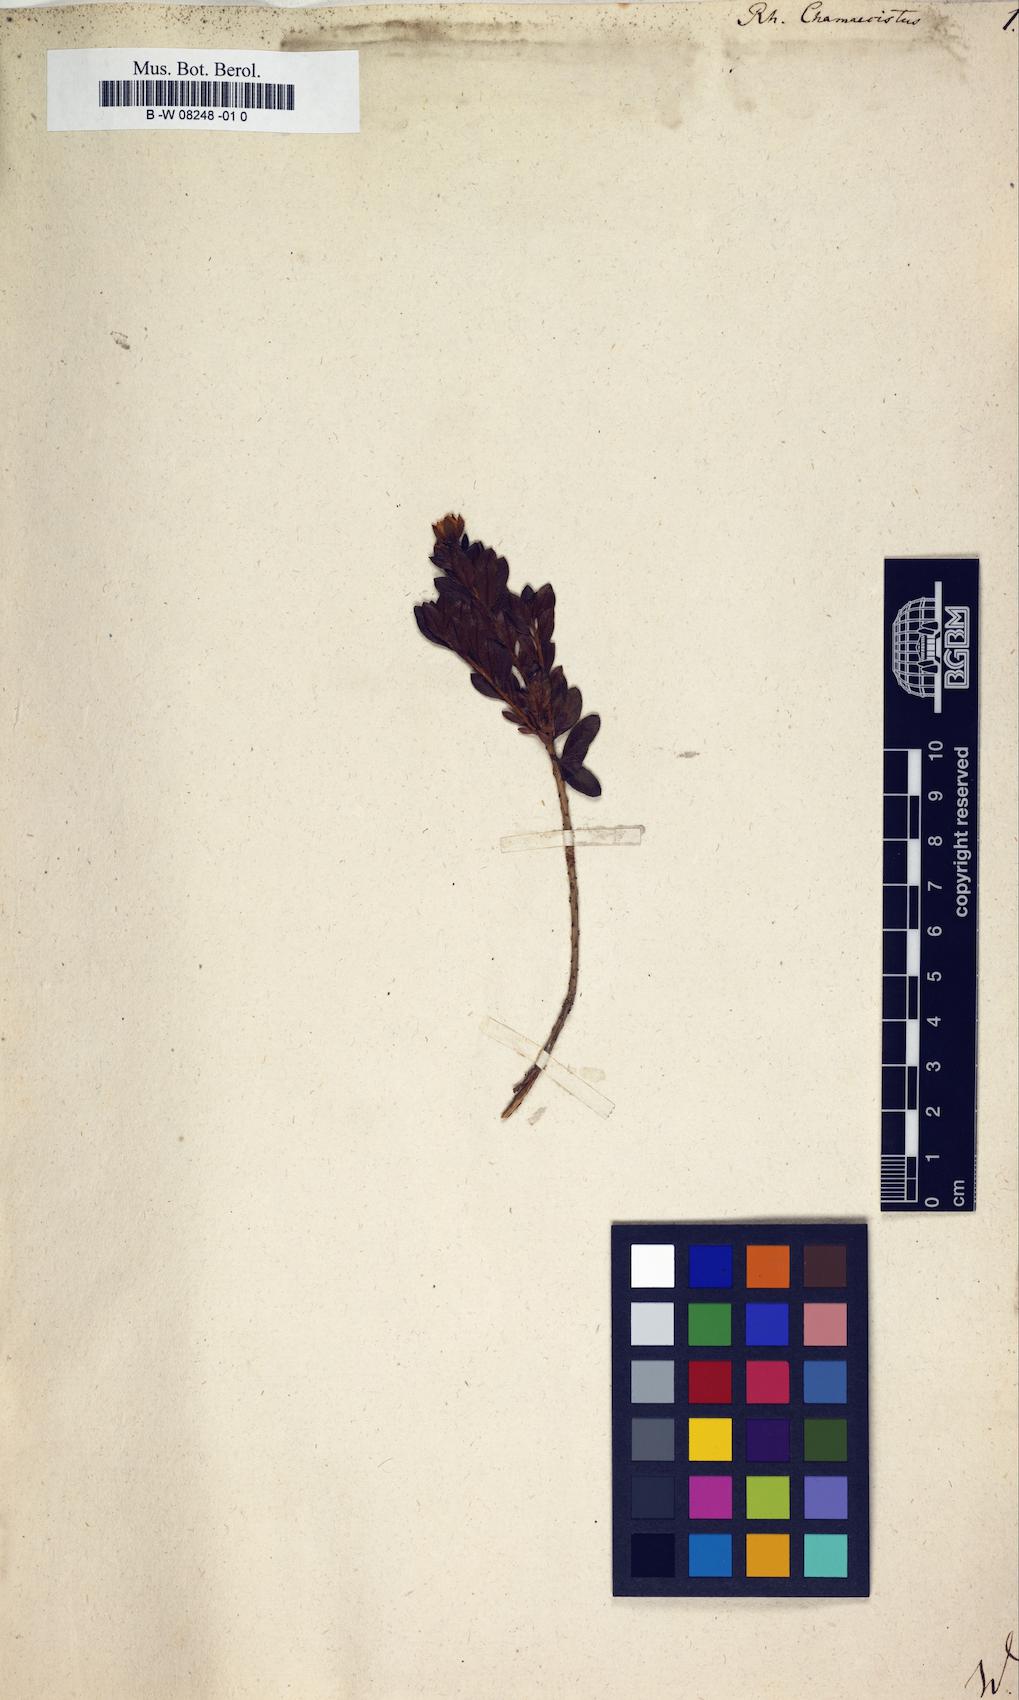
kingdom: Plantae
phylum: Tracheophyta
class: Magnoliopsida
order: Ericales
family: Ericaceae
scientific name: Ericaceae
